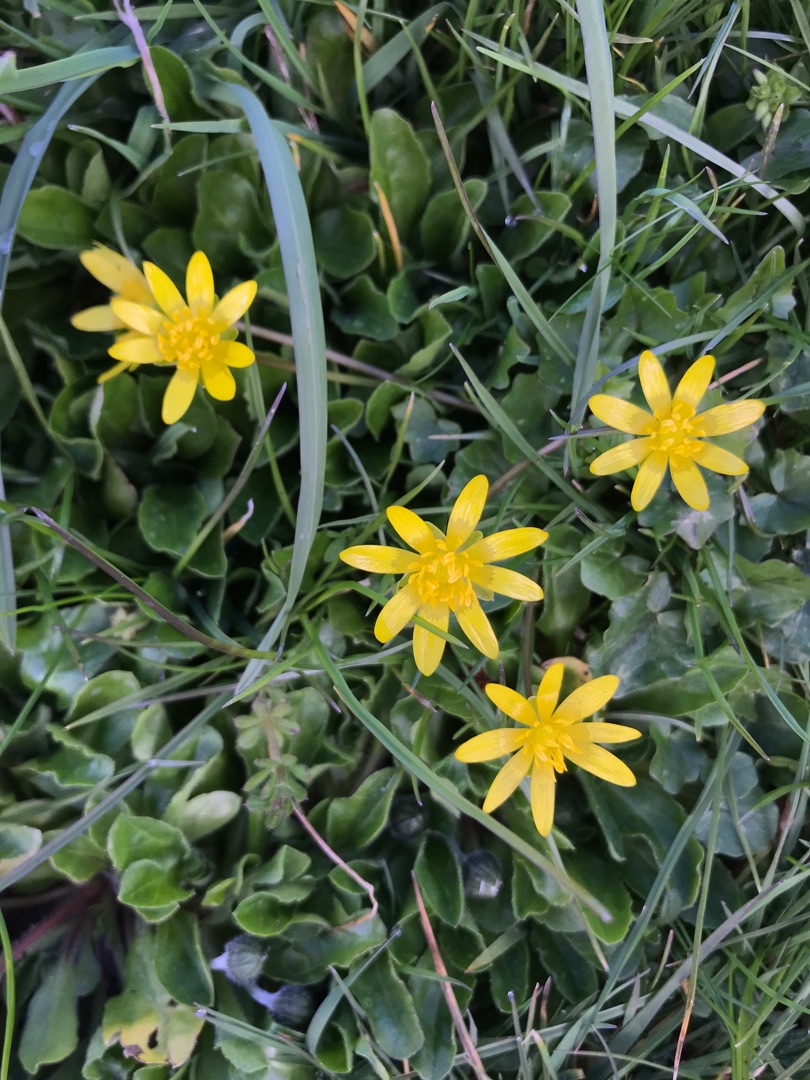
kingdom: Plantae
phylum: Tracheophyta
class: Magnoliopsida
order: Ranunculales
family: Ranunculaceae
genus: Ficaria
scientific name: Ficaria verna
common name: Vorterod
